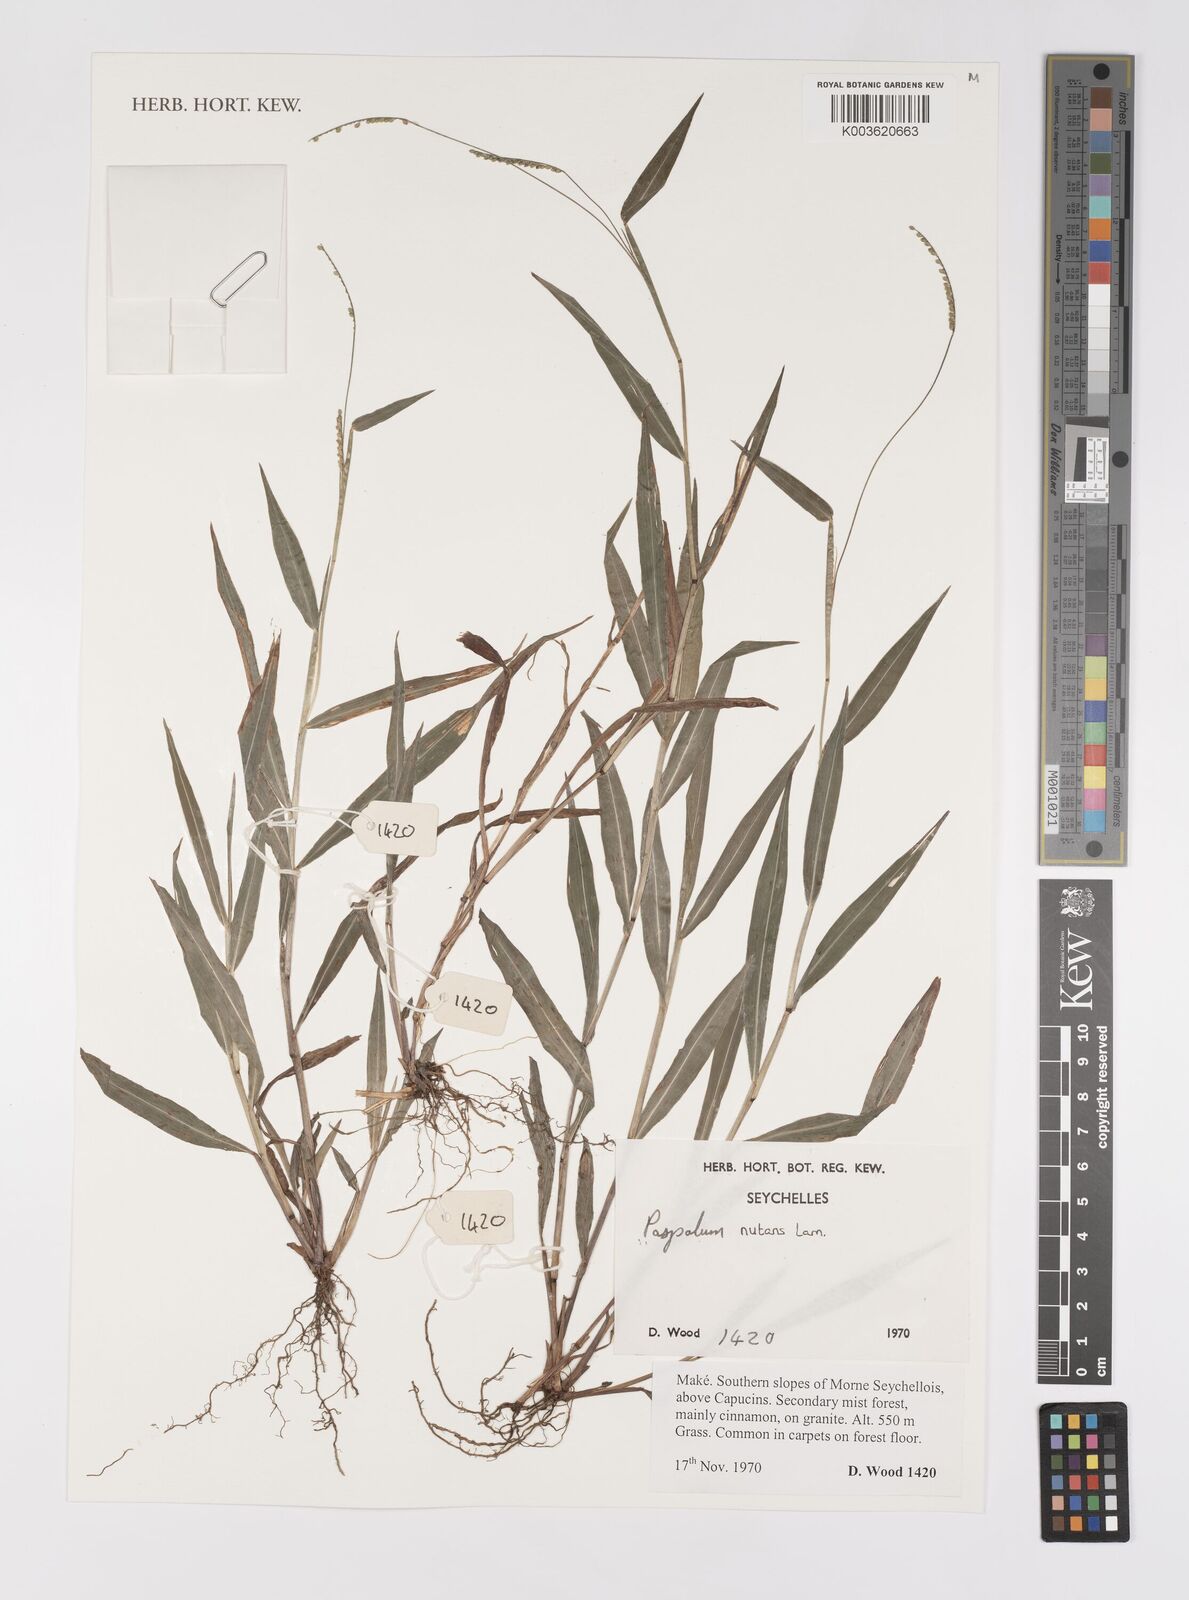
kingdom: Plantae
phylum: Tracheophyta
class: Liliopsida
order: Poales
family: Poaceae
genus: Paspalum
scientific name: Paspalum nutans
